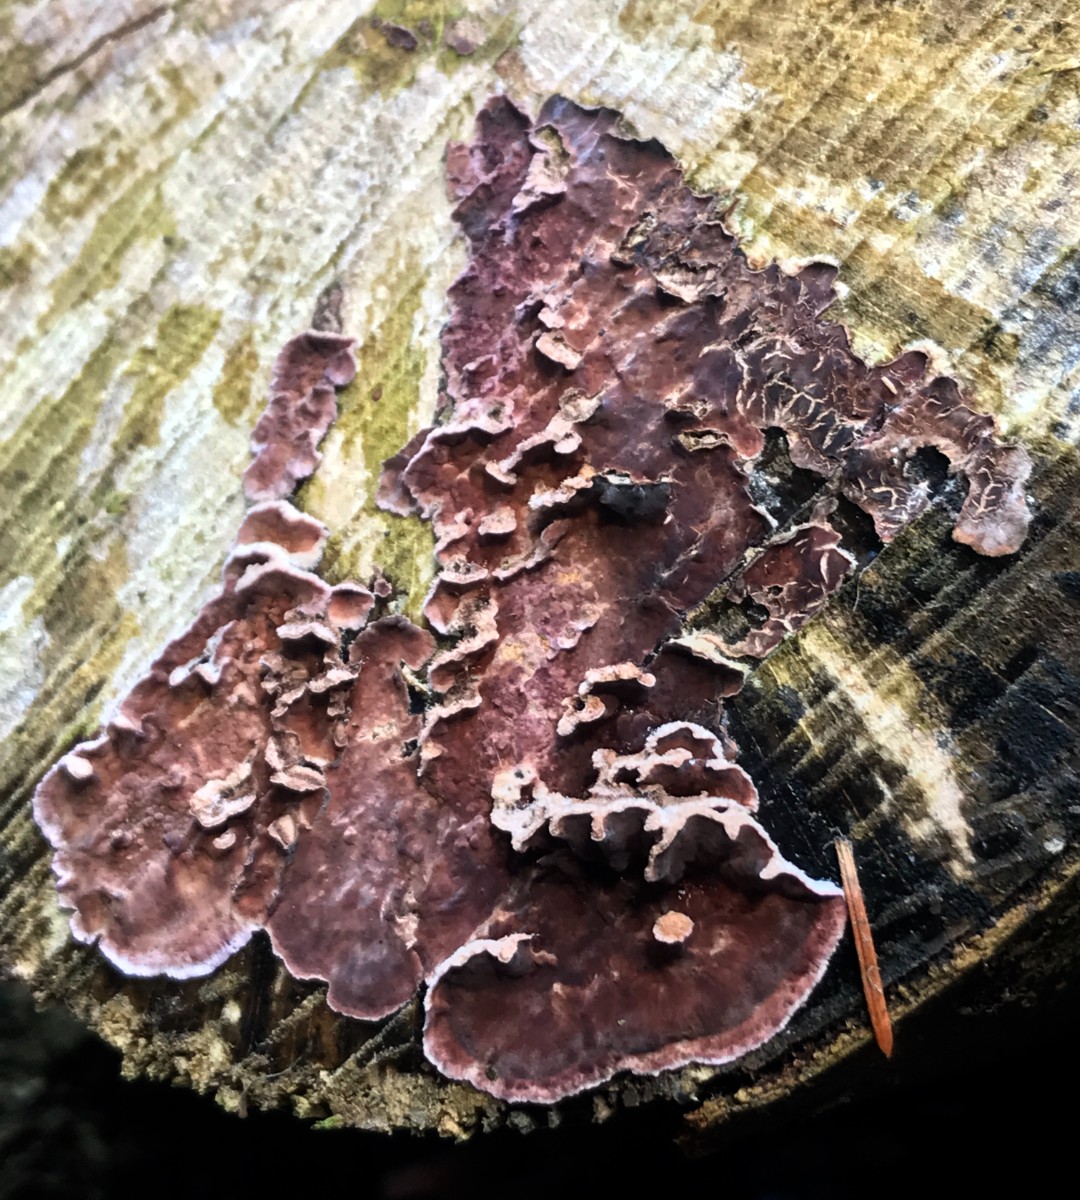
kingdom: Fungi
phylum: Basidiomycota
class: Agaricomycetes
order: Agaricales
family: Cyphellaceae
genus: Chondrostereum
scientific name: Chondrostereum purpureum
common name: purpurlædersvamp
